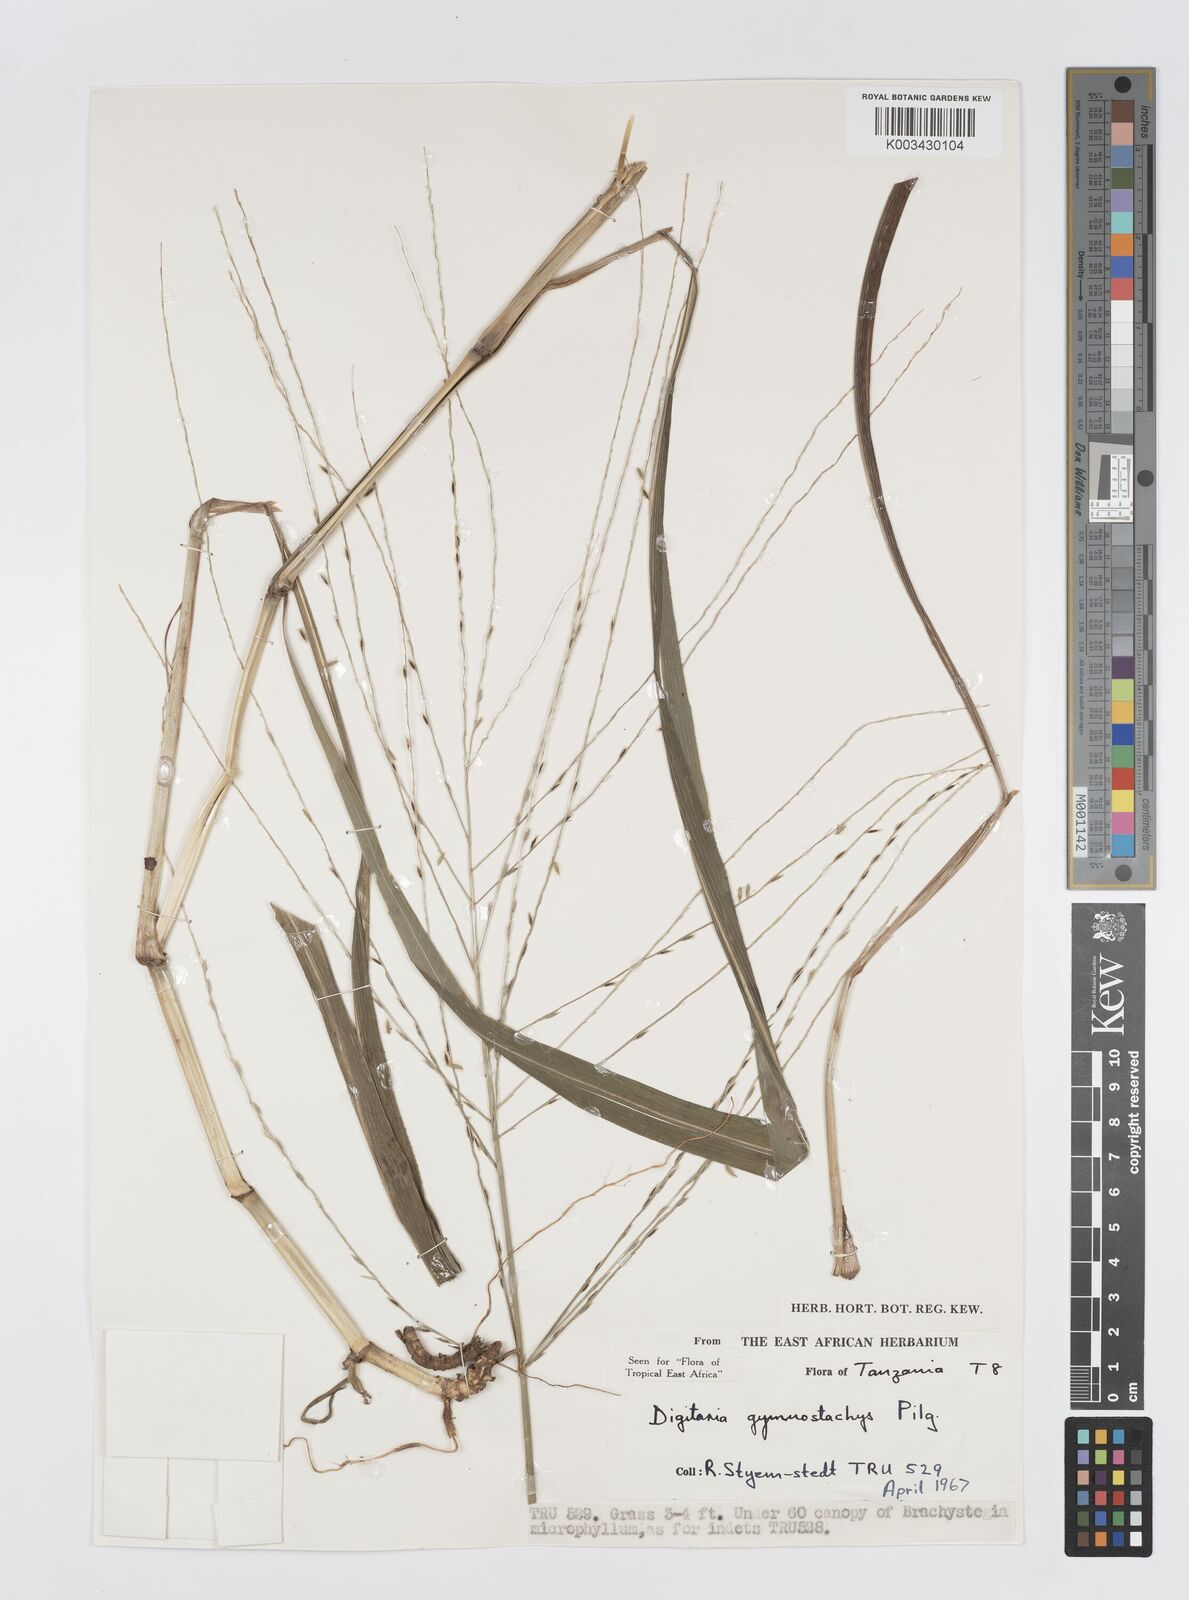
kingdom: Plantae
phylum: Tracheophyta
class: Liliopsida
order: Poales
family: Poaceae
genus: Digitaria
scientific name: Digitaria gymnostachys
